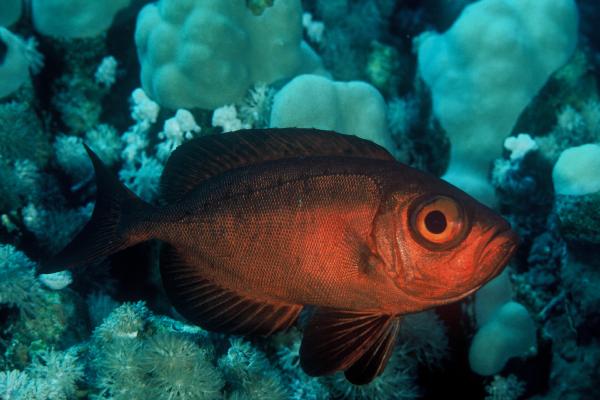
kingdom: Animalia
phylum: Chordata
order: Perciformes
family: Priacanthidae
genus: Priacanthus
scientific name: Priacanthus hamrur
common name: Moontail bullseye
